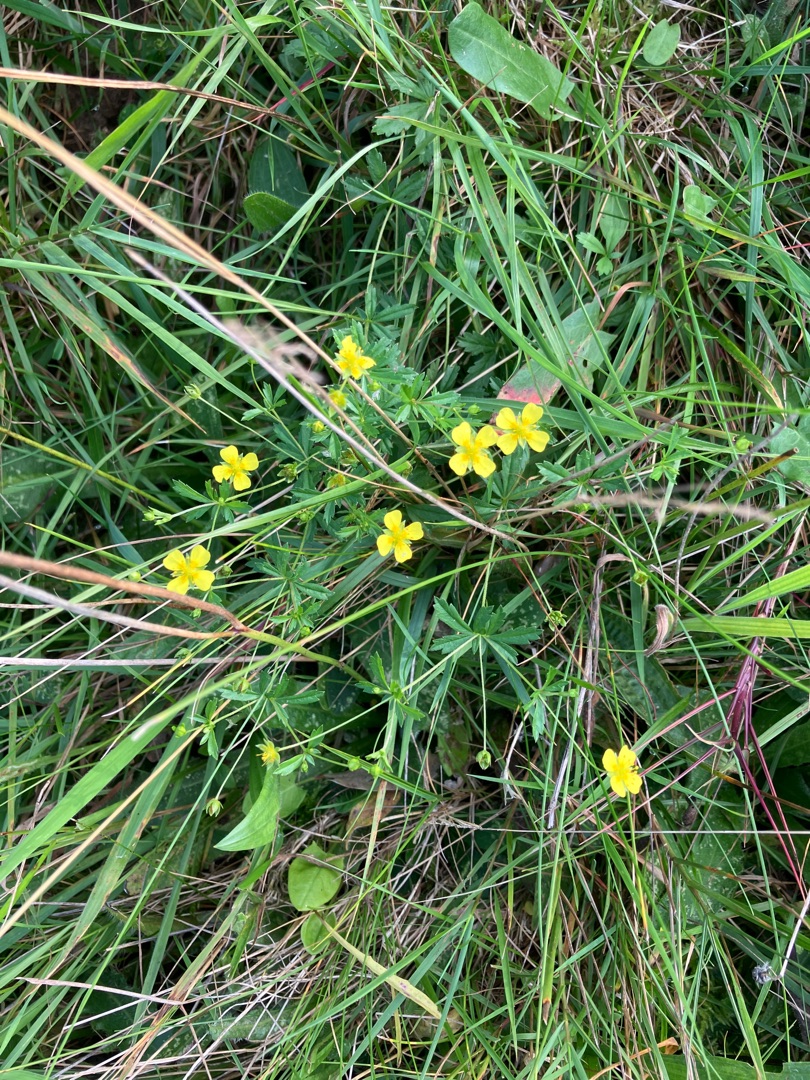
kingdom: Plantae
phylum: Tracheophyta
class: Magnoliopsida
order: Rosales
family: Rosaceae
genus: Potentilla
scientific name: Potentilla erecta
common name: Tormentil
